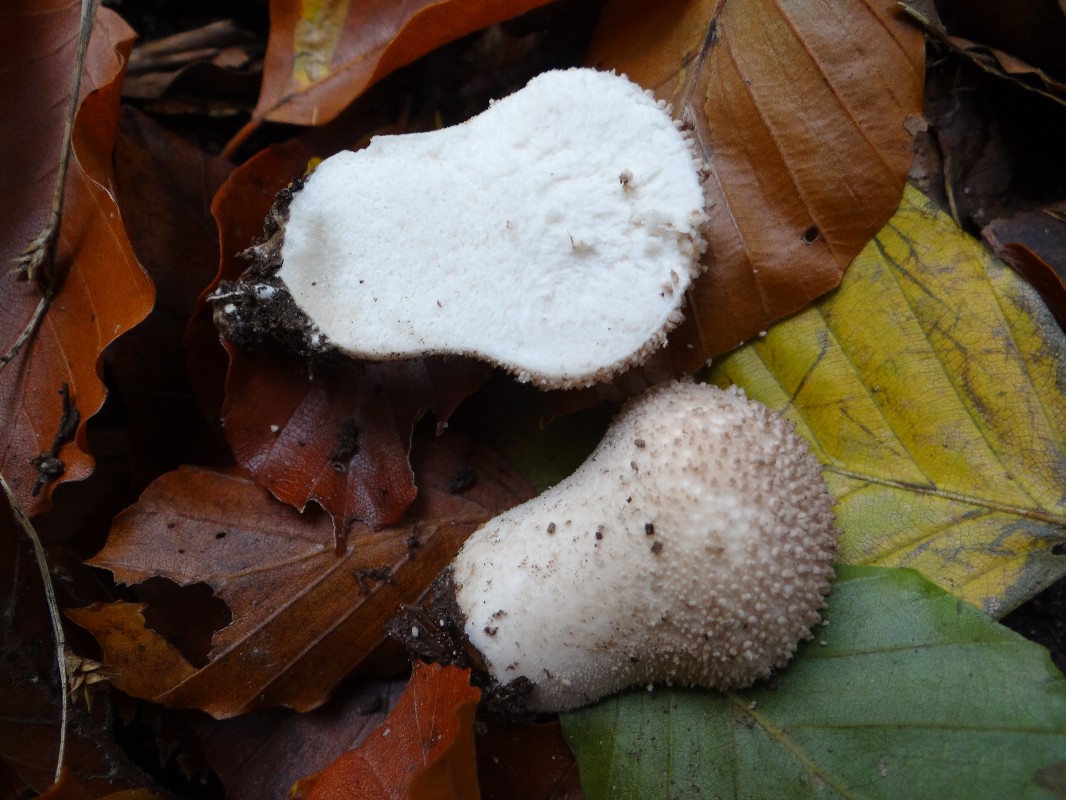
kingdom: Fungi
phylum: Basidiomycota
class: Agaricomycetes
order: Agaricales
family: Lycoperdaceae
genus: Lycoperdon
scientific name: Lycoperdon perlatum
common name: krystal-støvbold
